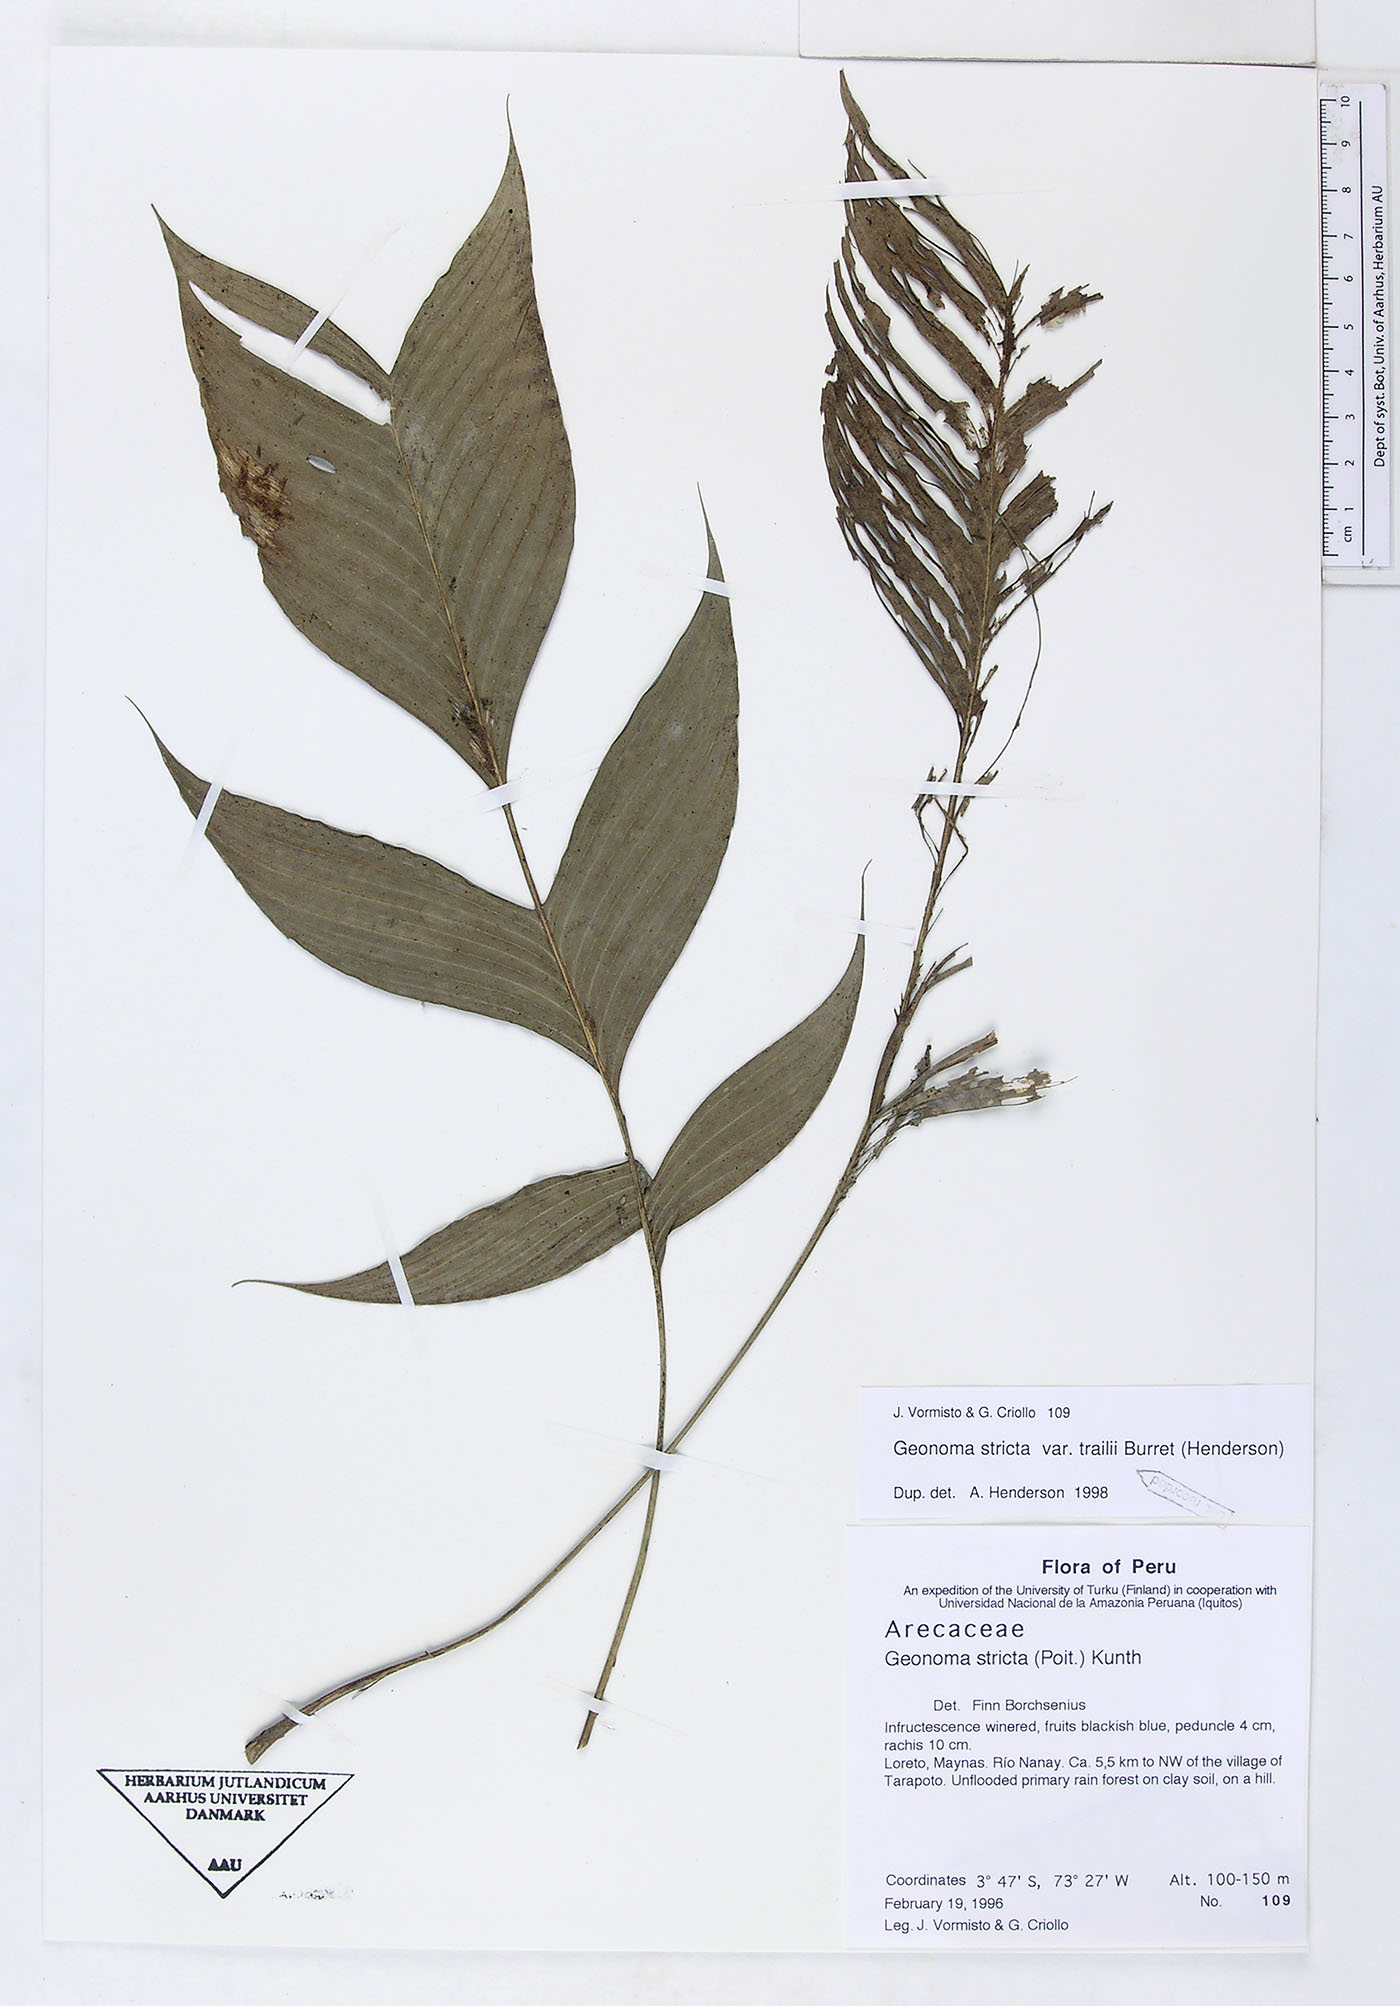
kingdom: Plantae
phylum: Tracheophyta
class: Liliopsida
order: Arecales
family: Arecaceae
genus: Geonoma
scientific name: Geonoma stricta
